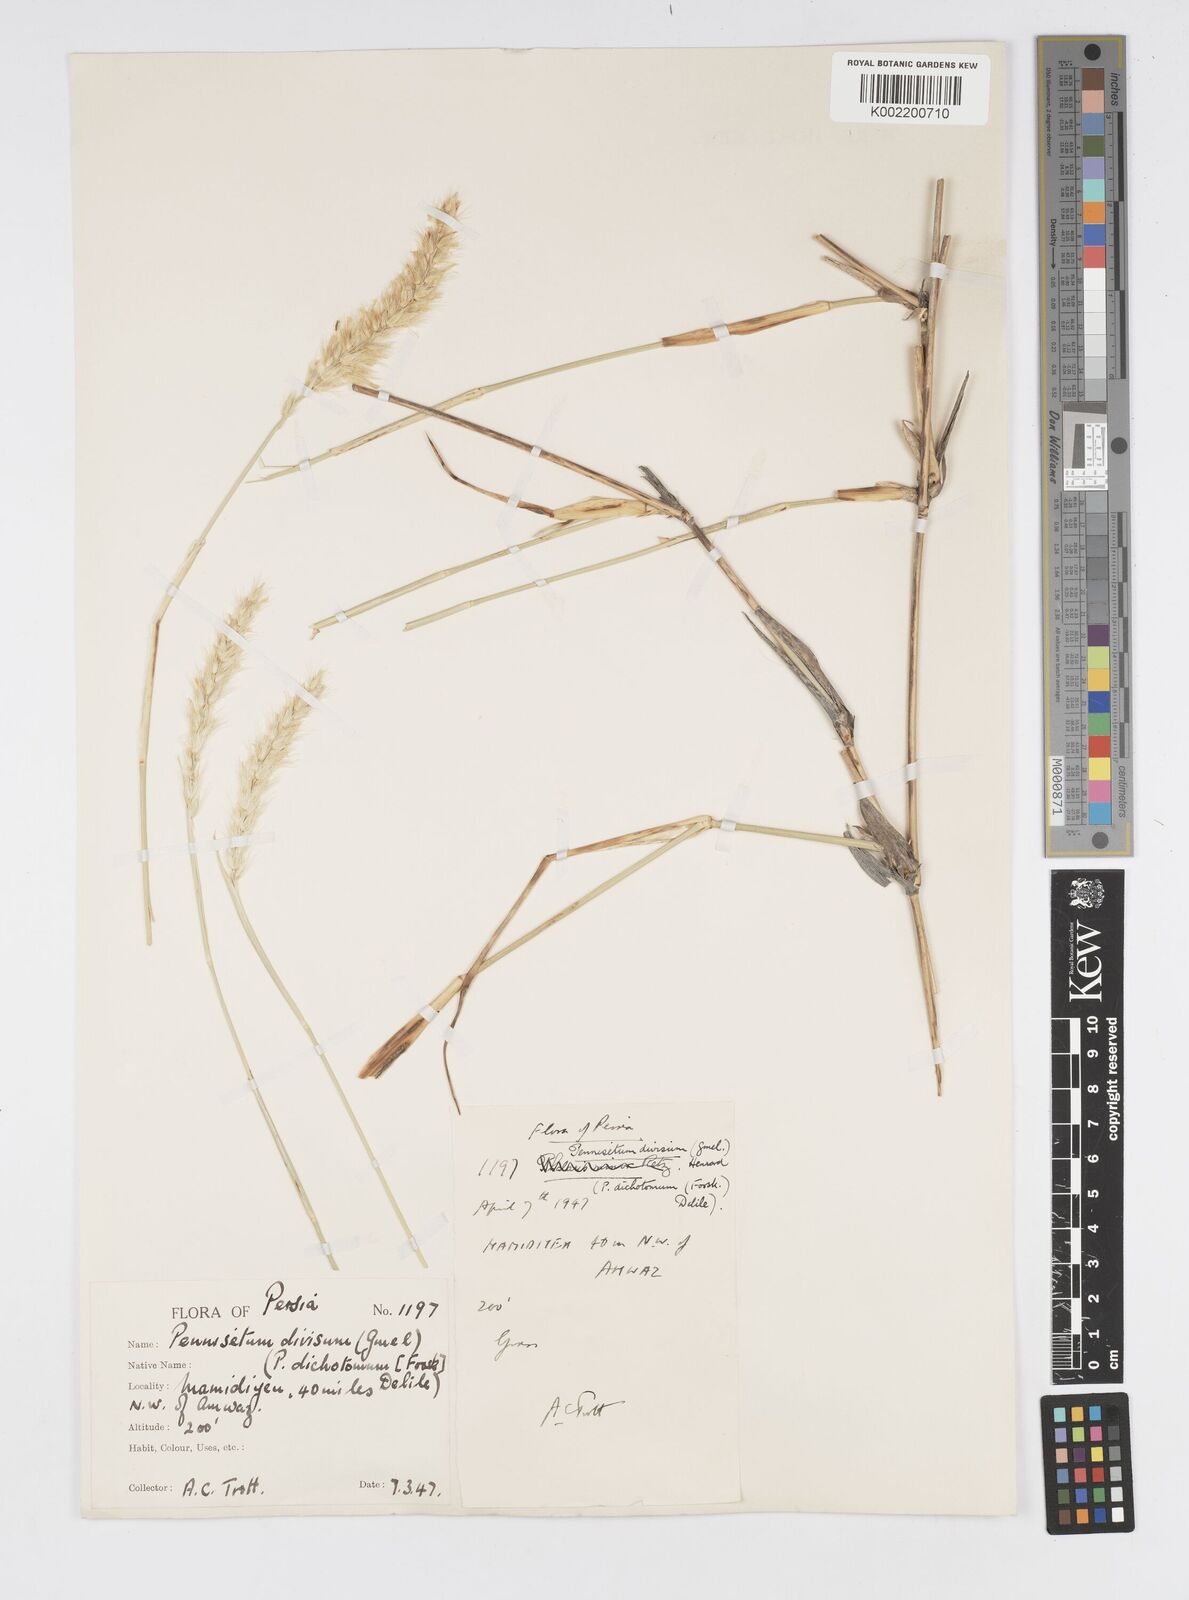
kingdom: Plantae
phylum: Tracheophyta
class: Liliopsida
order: Poales
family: Poaceae
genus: Cenchrus
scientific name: Cenchrus divisus
